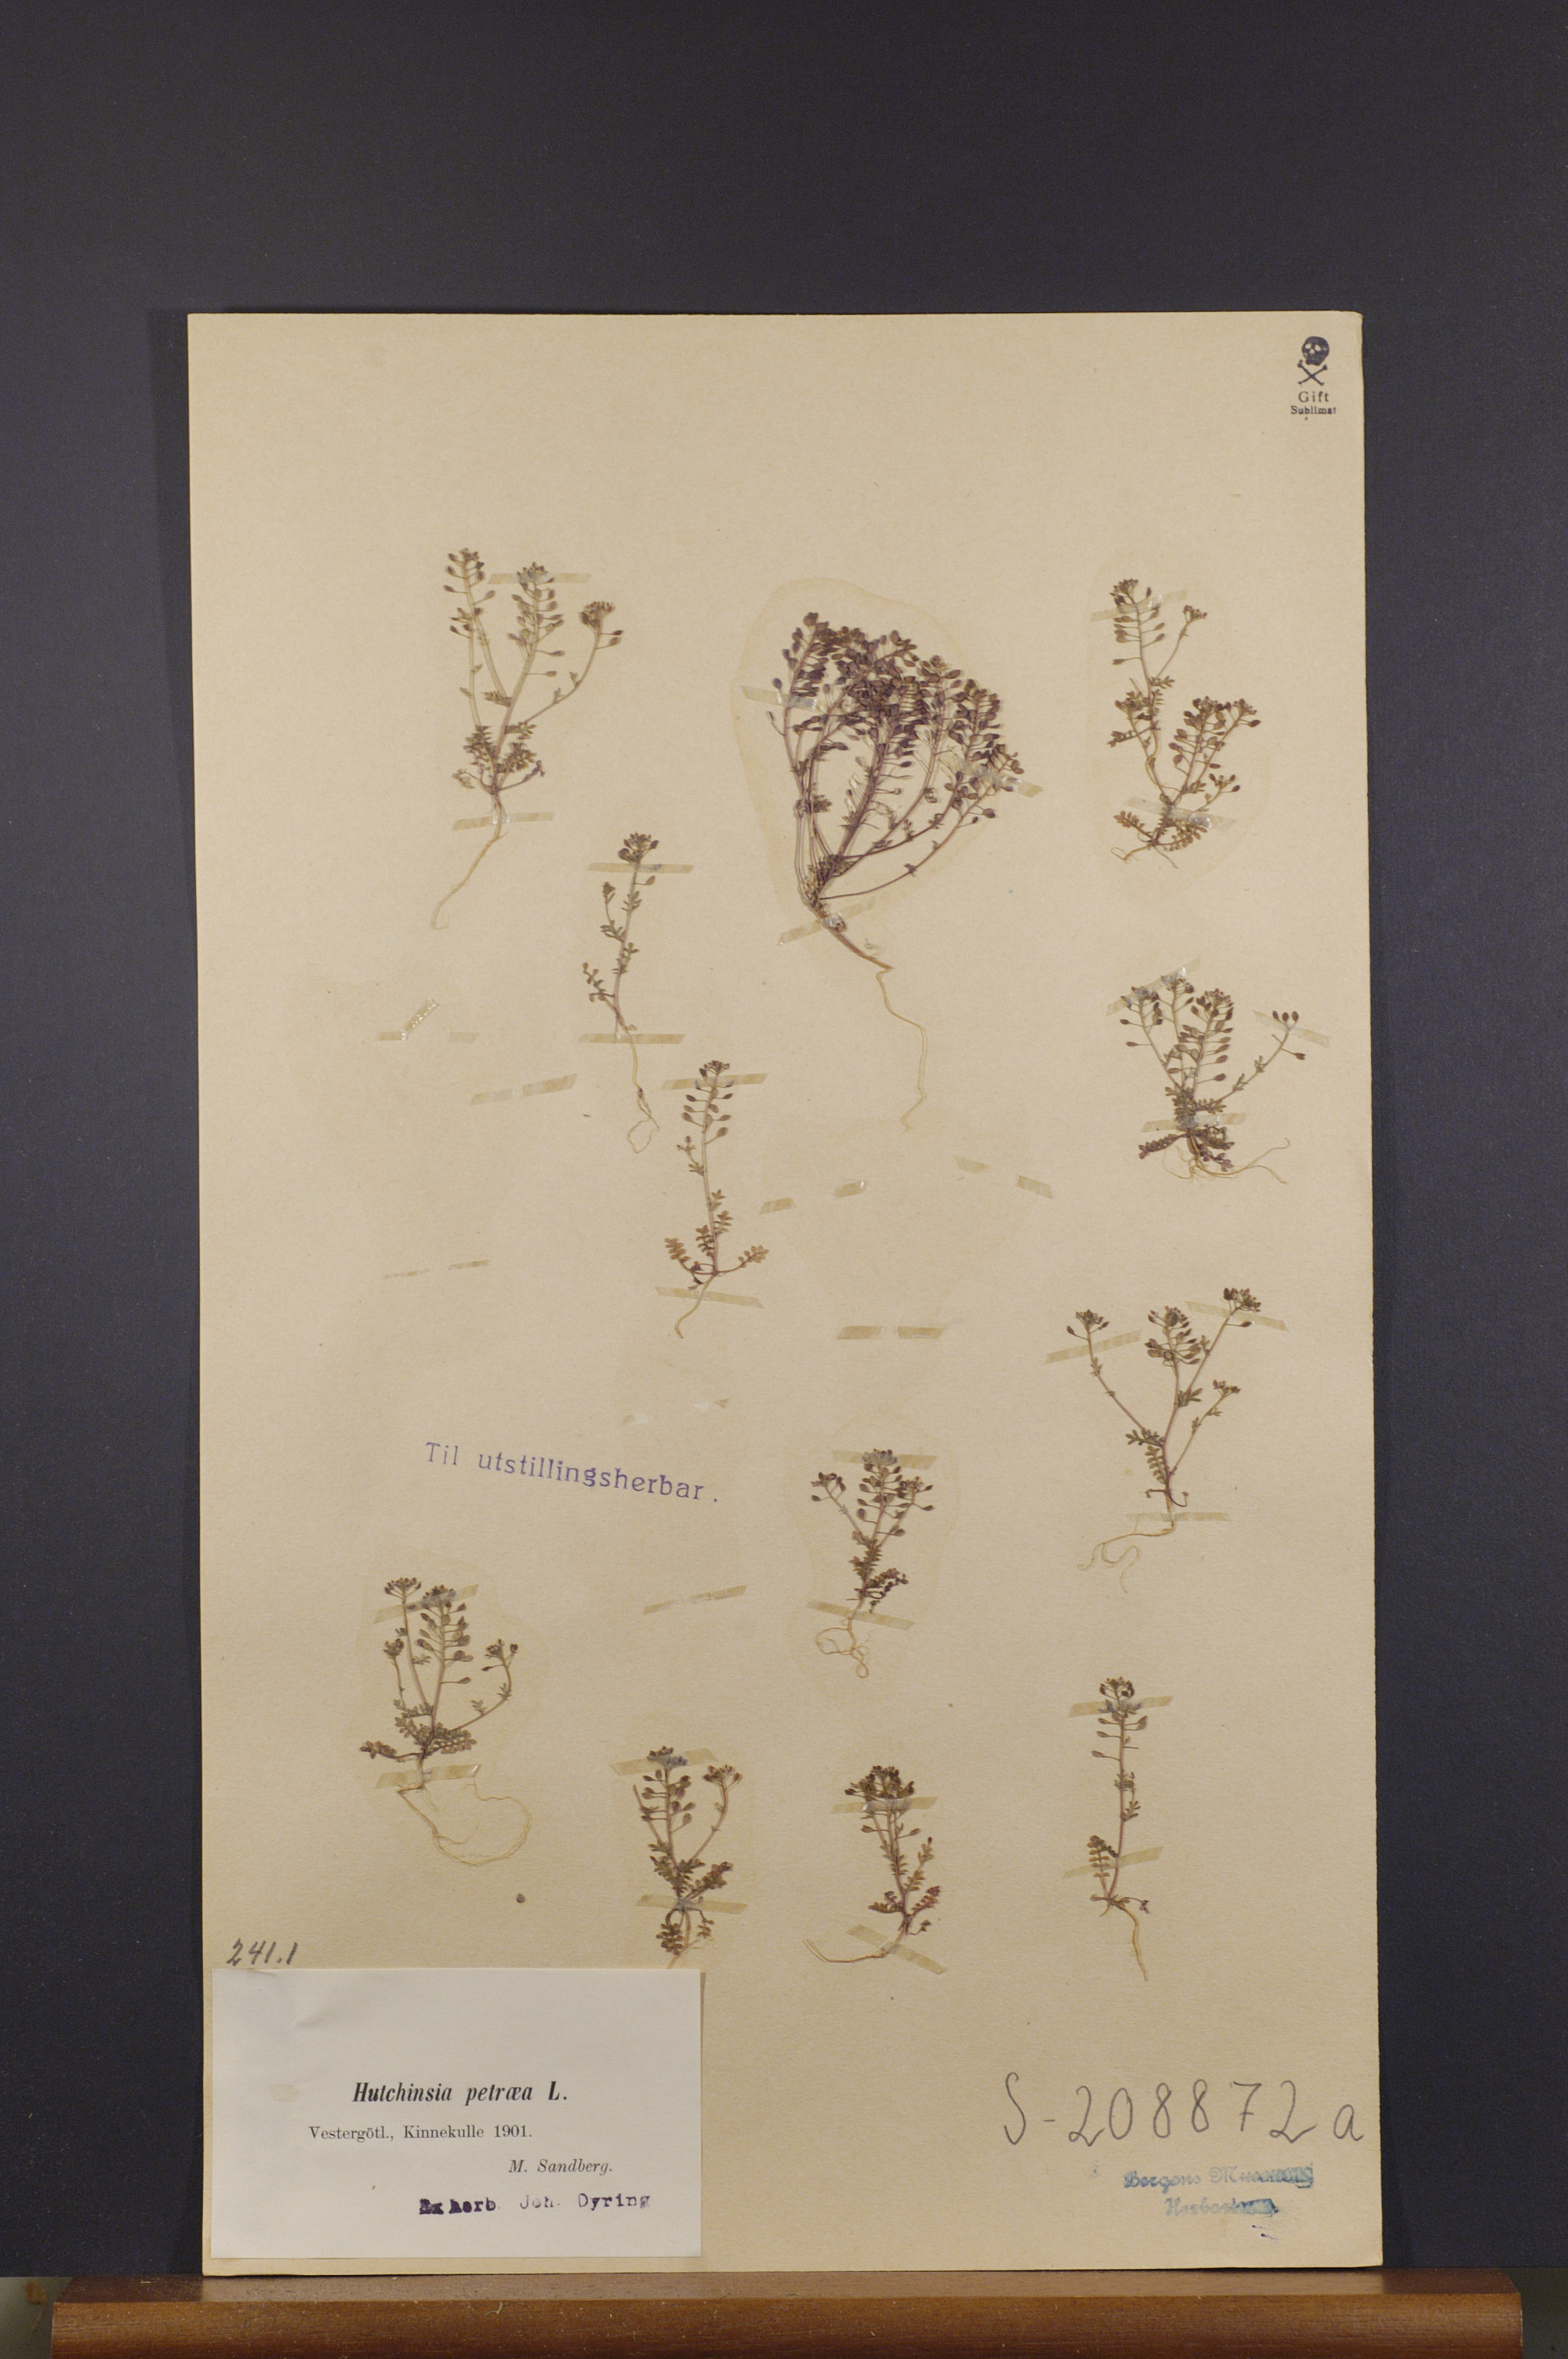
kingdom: Plantae
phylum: Tracheophyta
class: Magnoliopsida
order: Brassicales
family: Brassicaceae
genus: Hornungia
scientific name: Hornungia petraea
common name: Hutchinsia
